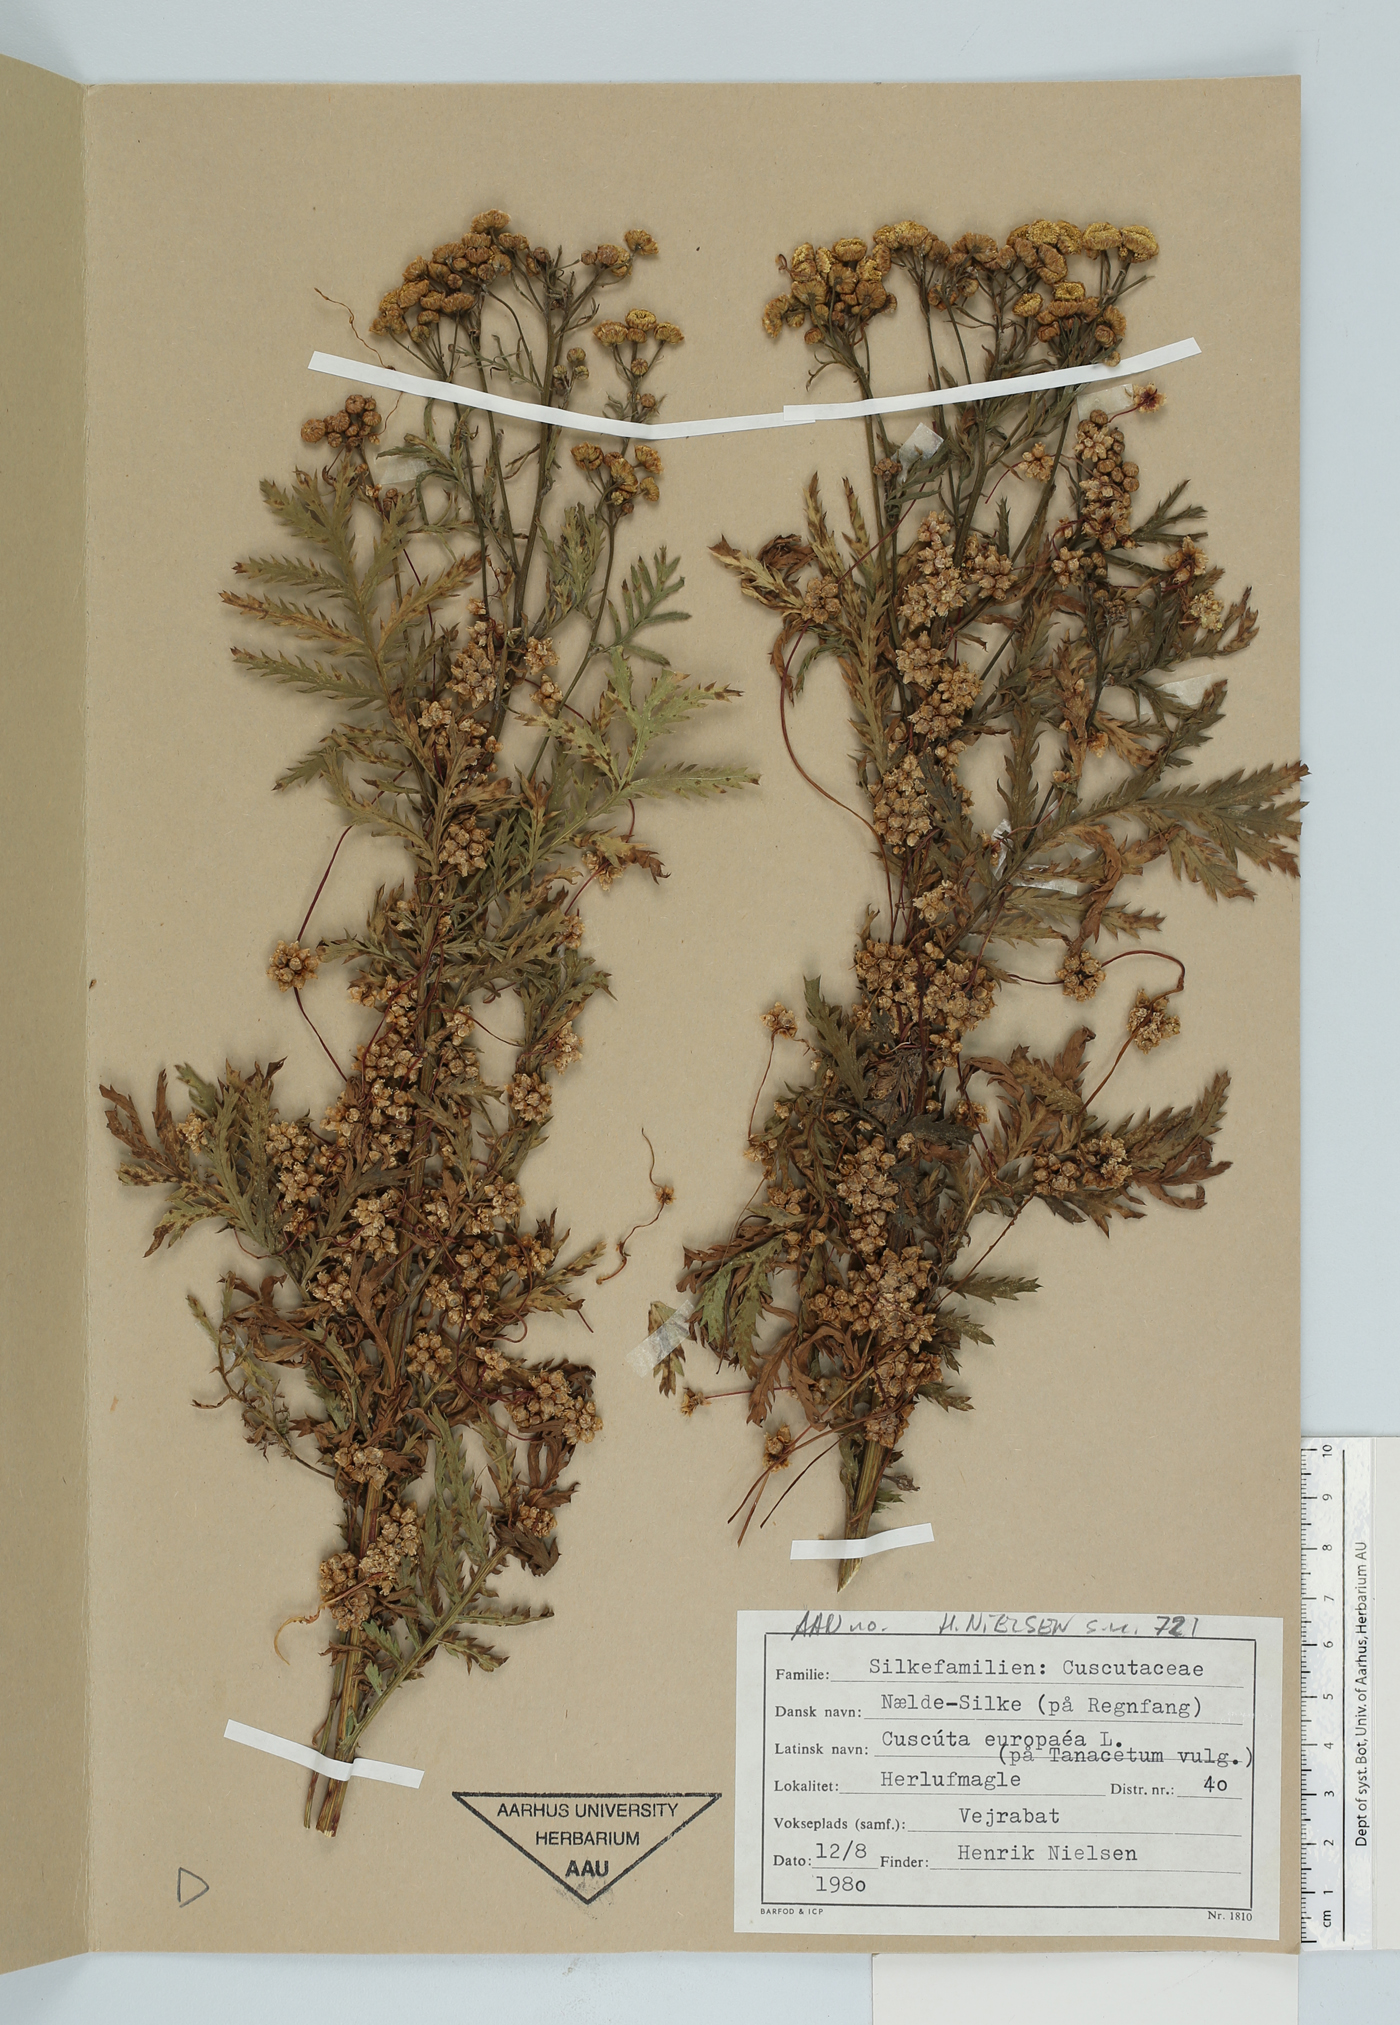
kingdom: Plantae
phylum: Tracheophyta
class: Magnoliopsida
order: Solanales
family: Convolvulaceae
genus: Cuscuta
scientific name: Cuscuta europaea
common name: Greater dodder
